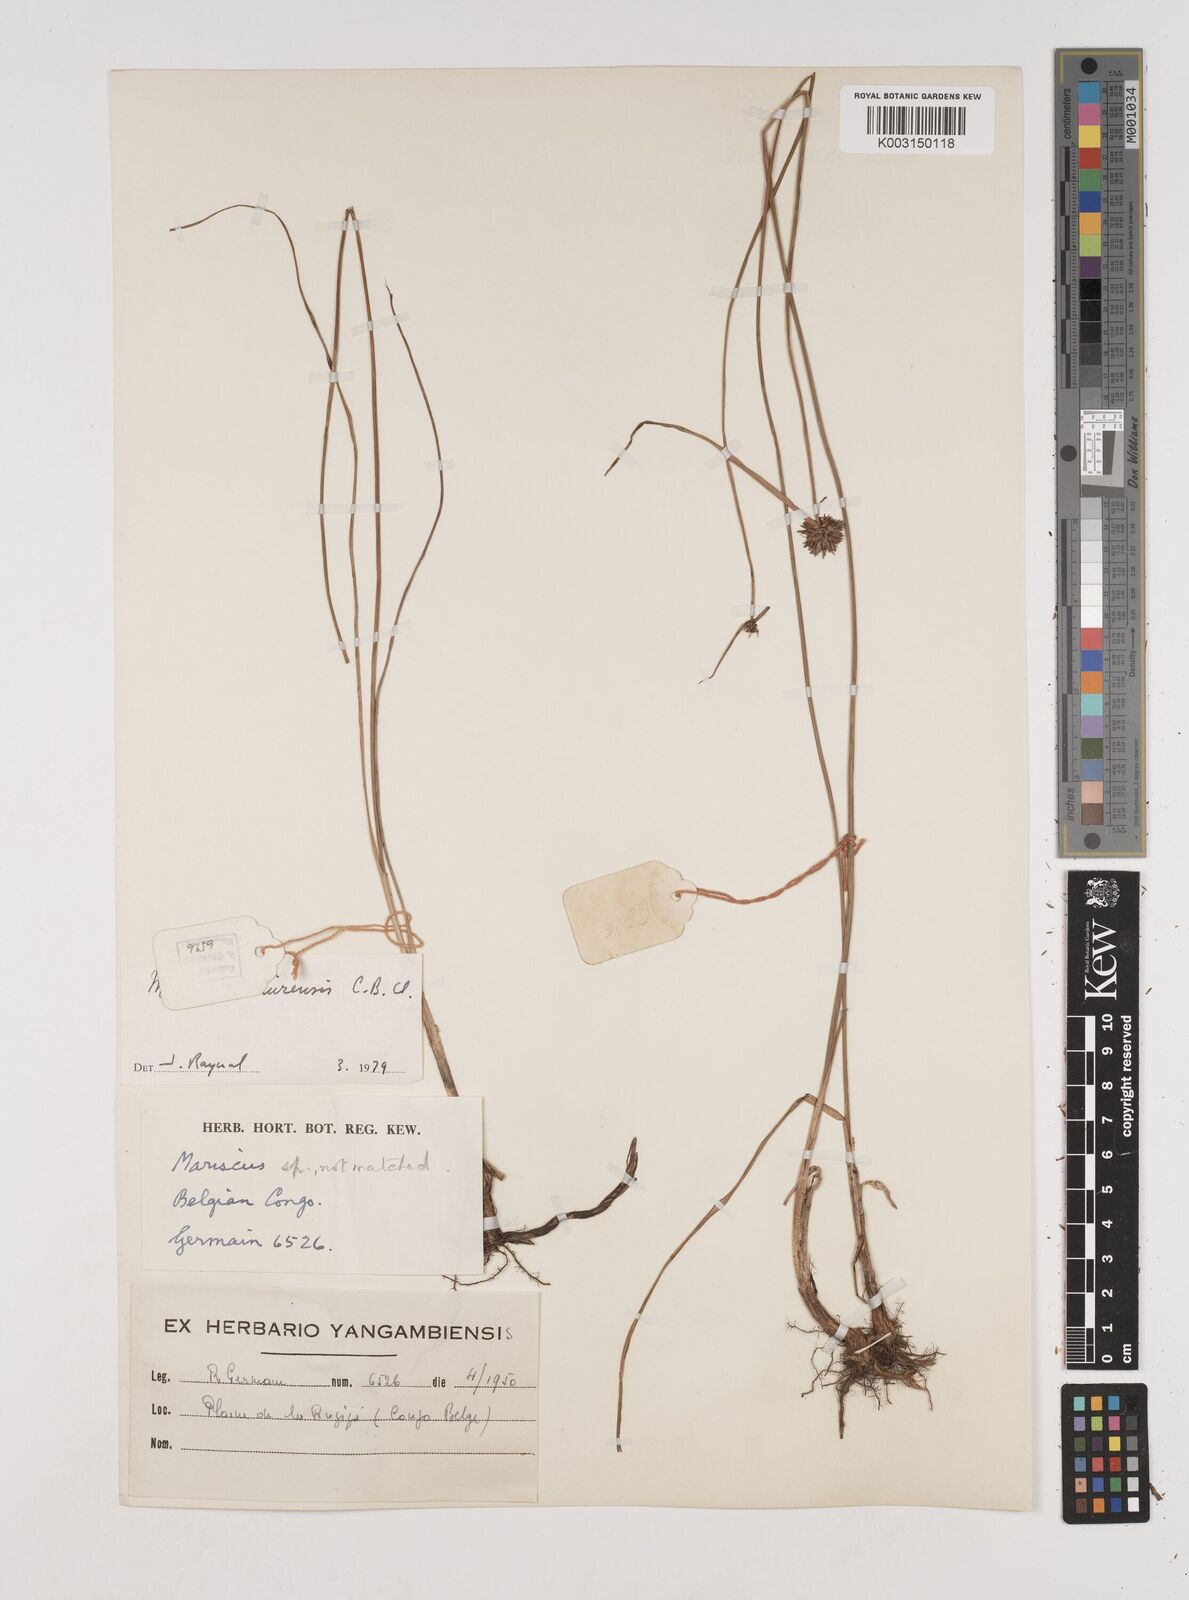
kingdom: Plantae
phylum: Tracheophyta
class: Liliopsida
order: Poales
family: Cyperaceae
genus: Cyperus
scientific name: Cyperus diurensis
